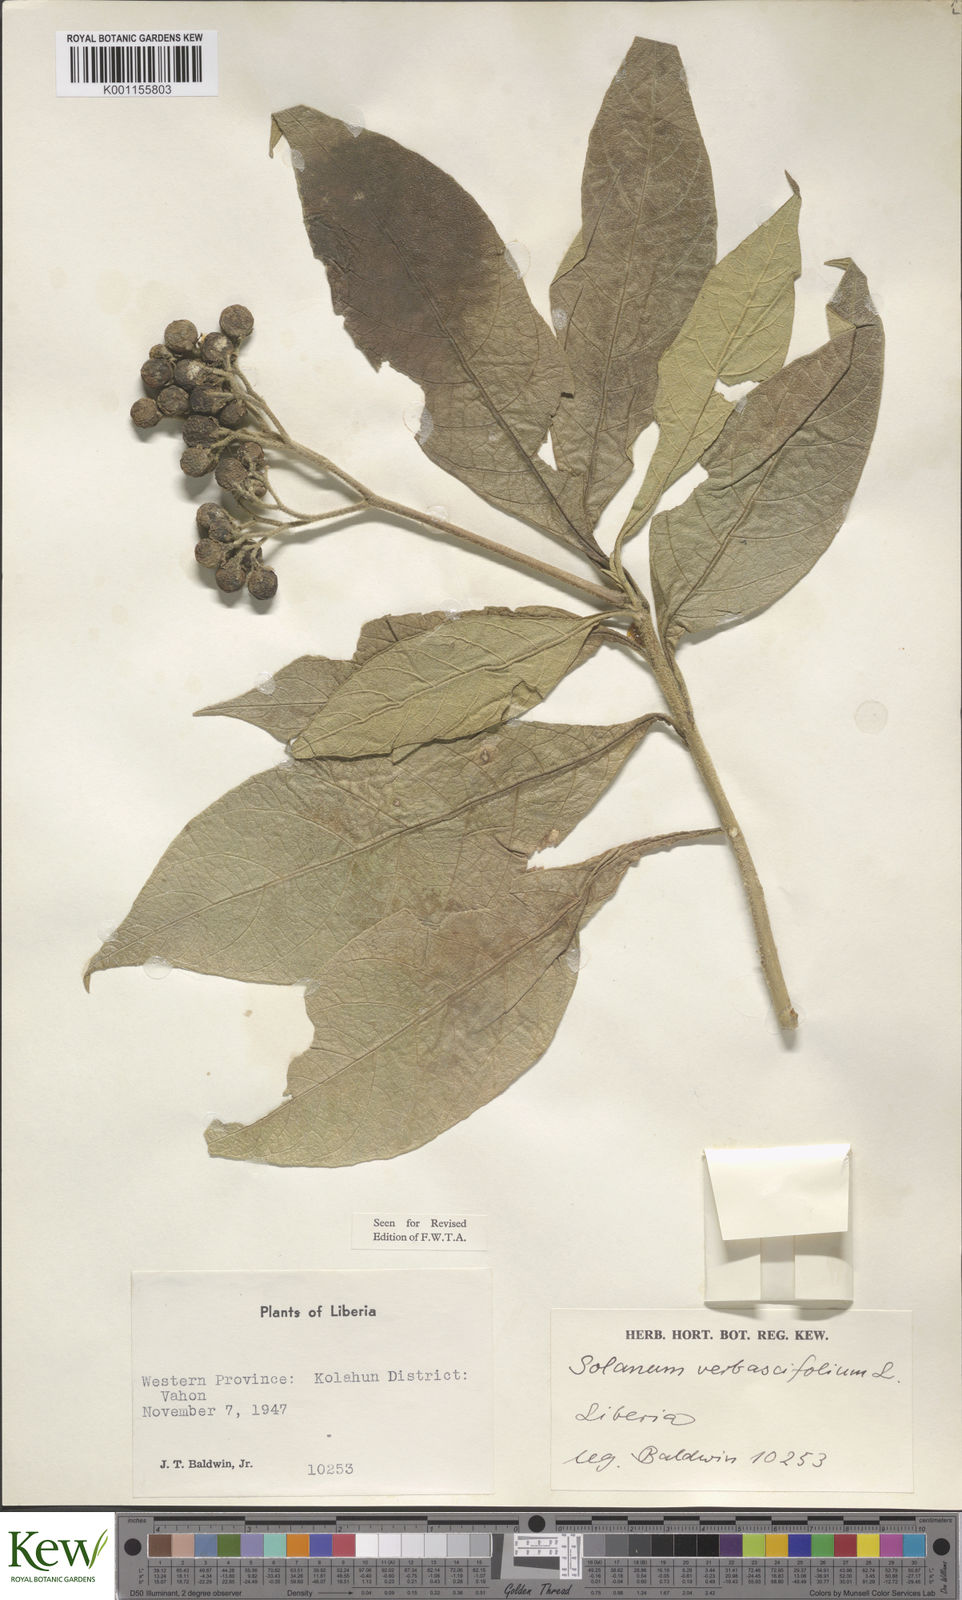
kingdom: Plantae
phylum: Tracheophyta
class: Magnoliopsida
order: Solanales
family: Solanaceae
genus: Solanum
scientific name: Solanum rugosum
